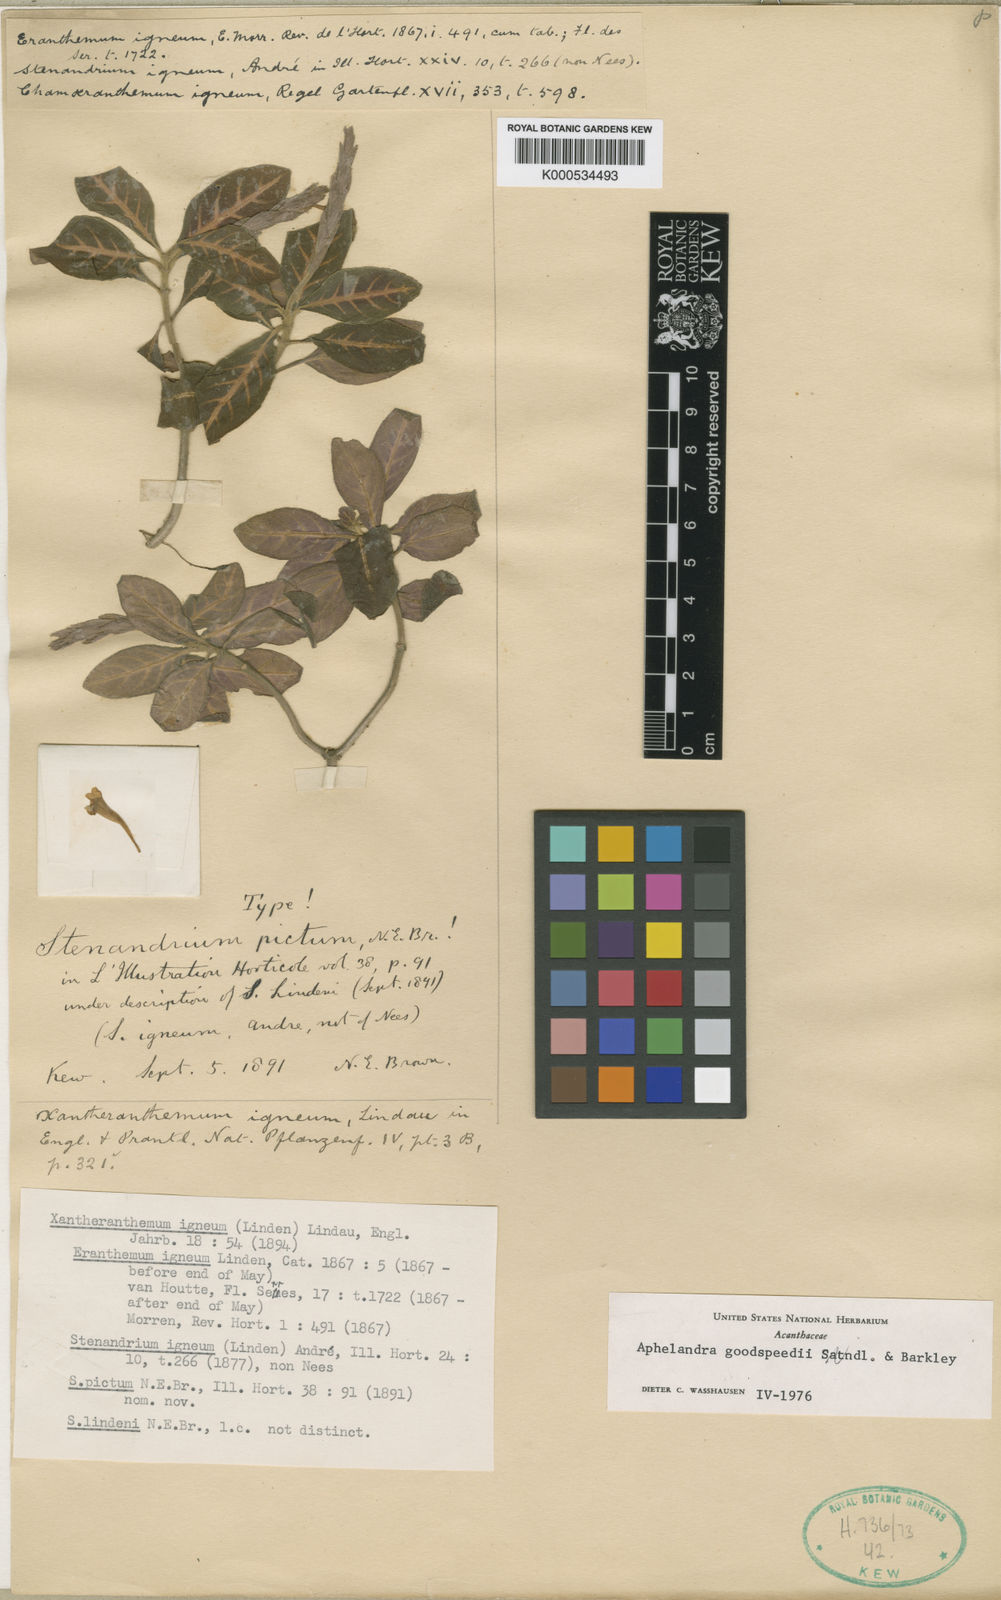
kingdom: Plantae
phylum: Tracheophyta
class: Magnoliopsida
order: Lamiales
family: Acanthaceae
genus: Aphelandra
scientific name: Aphelandra maculata
